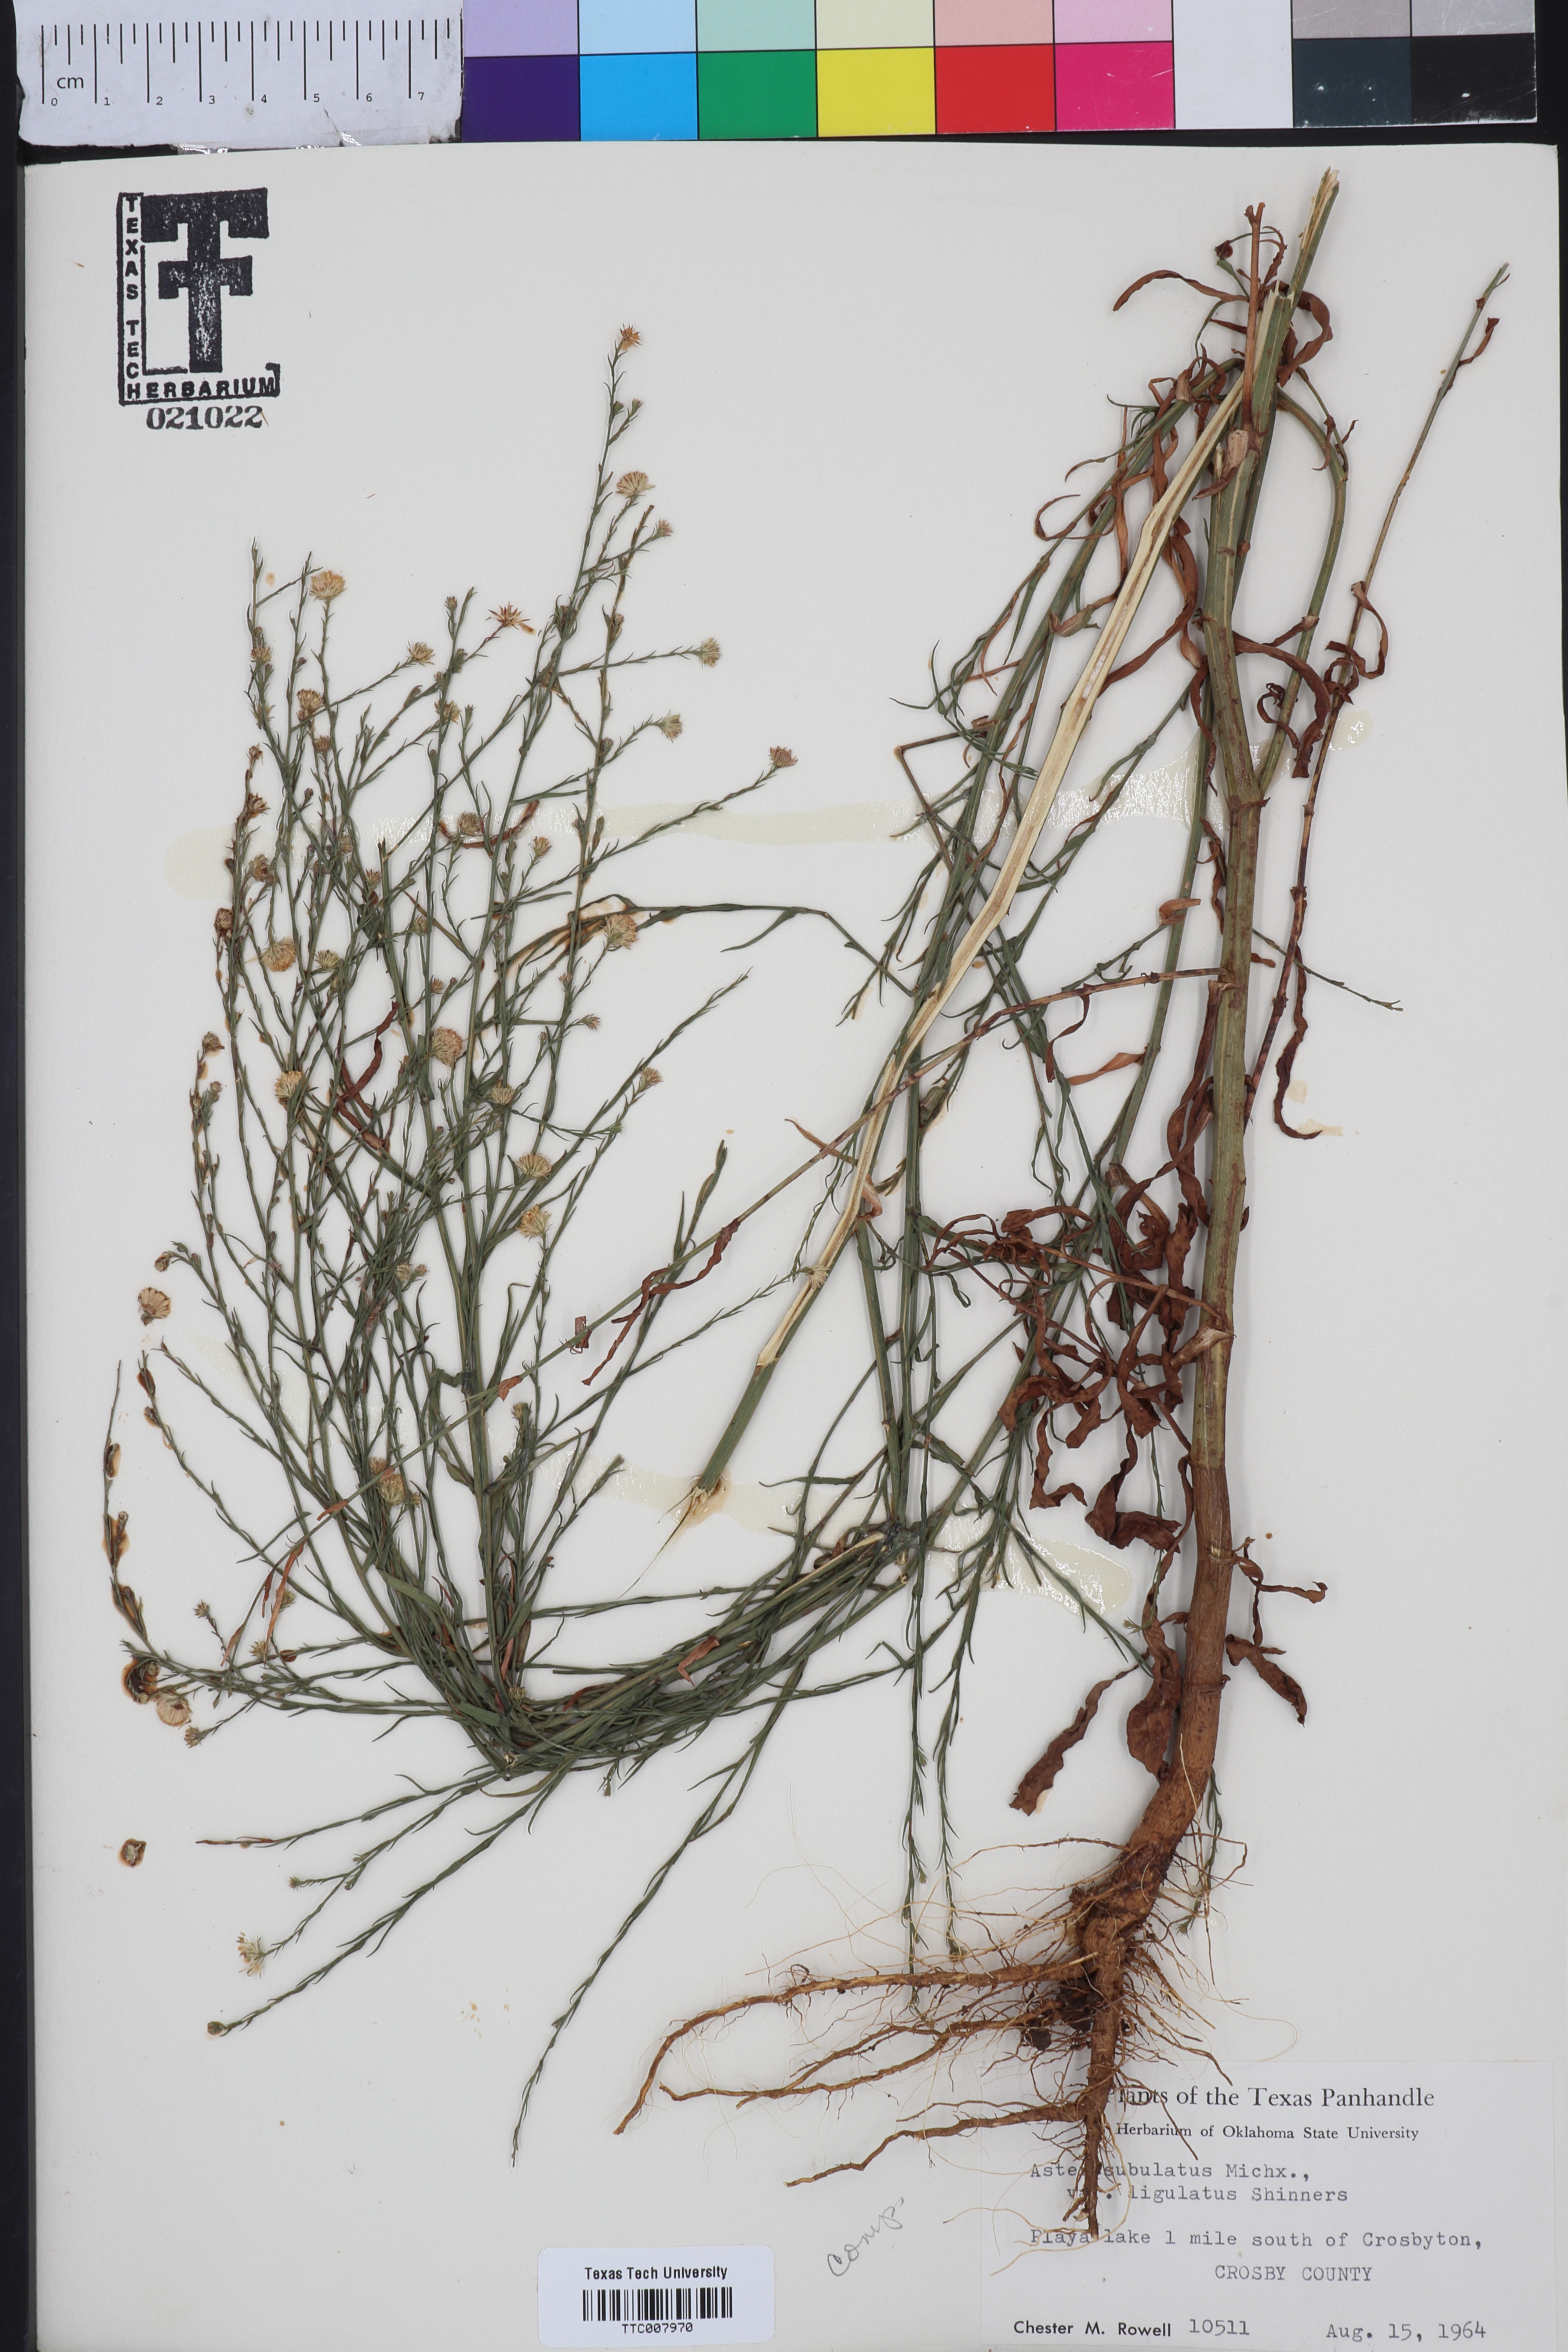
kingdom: Plantae
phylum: Tracheophyta
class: Magnoliopsida
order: Asterales
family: Asteraceae
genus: Symphyotrichum
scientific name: Symphyotrichum divaricatum
